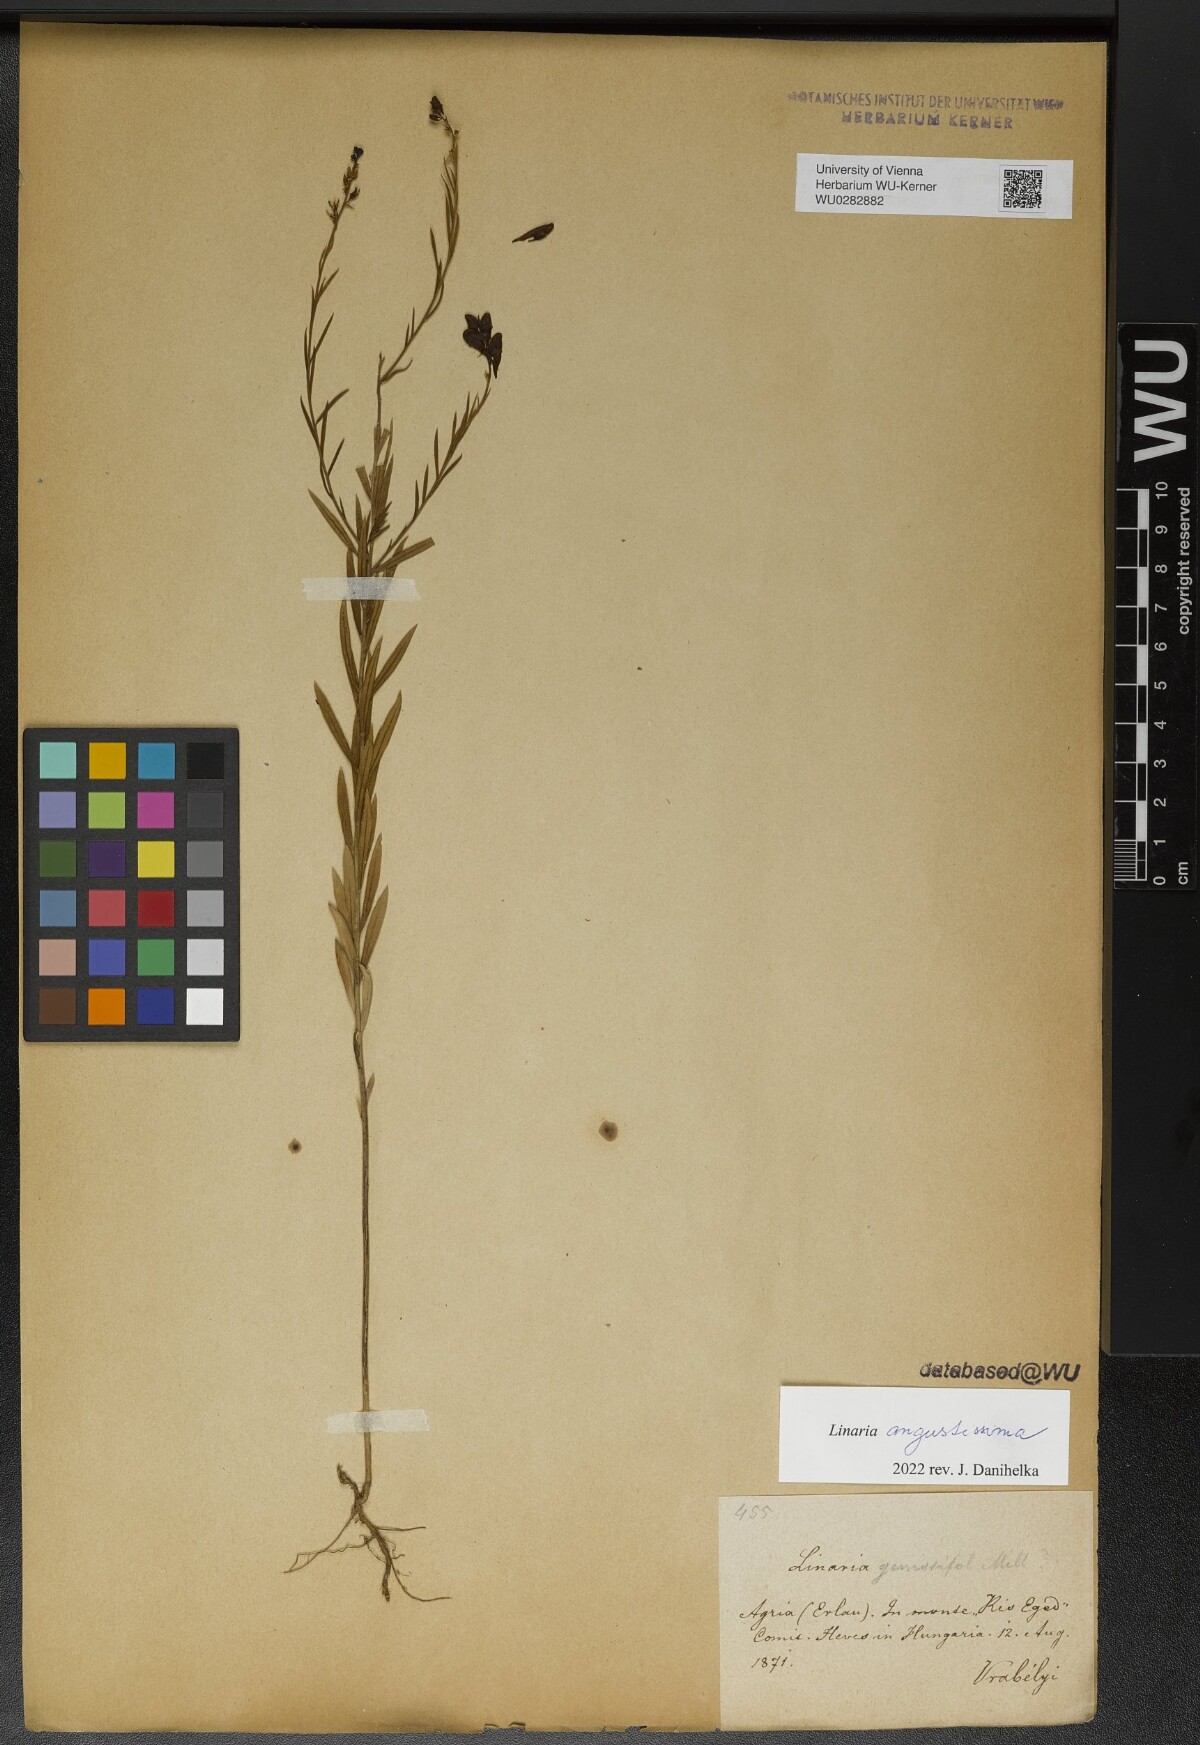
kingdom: Plantae
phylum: Tracheophyta
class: Magnoliopsida
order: Lamiales
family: Plantaginaceae
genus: Linaria
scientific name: Linaria angustissima
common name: Italian toadflax
